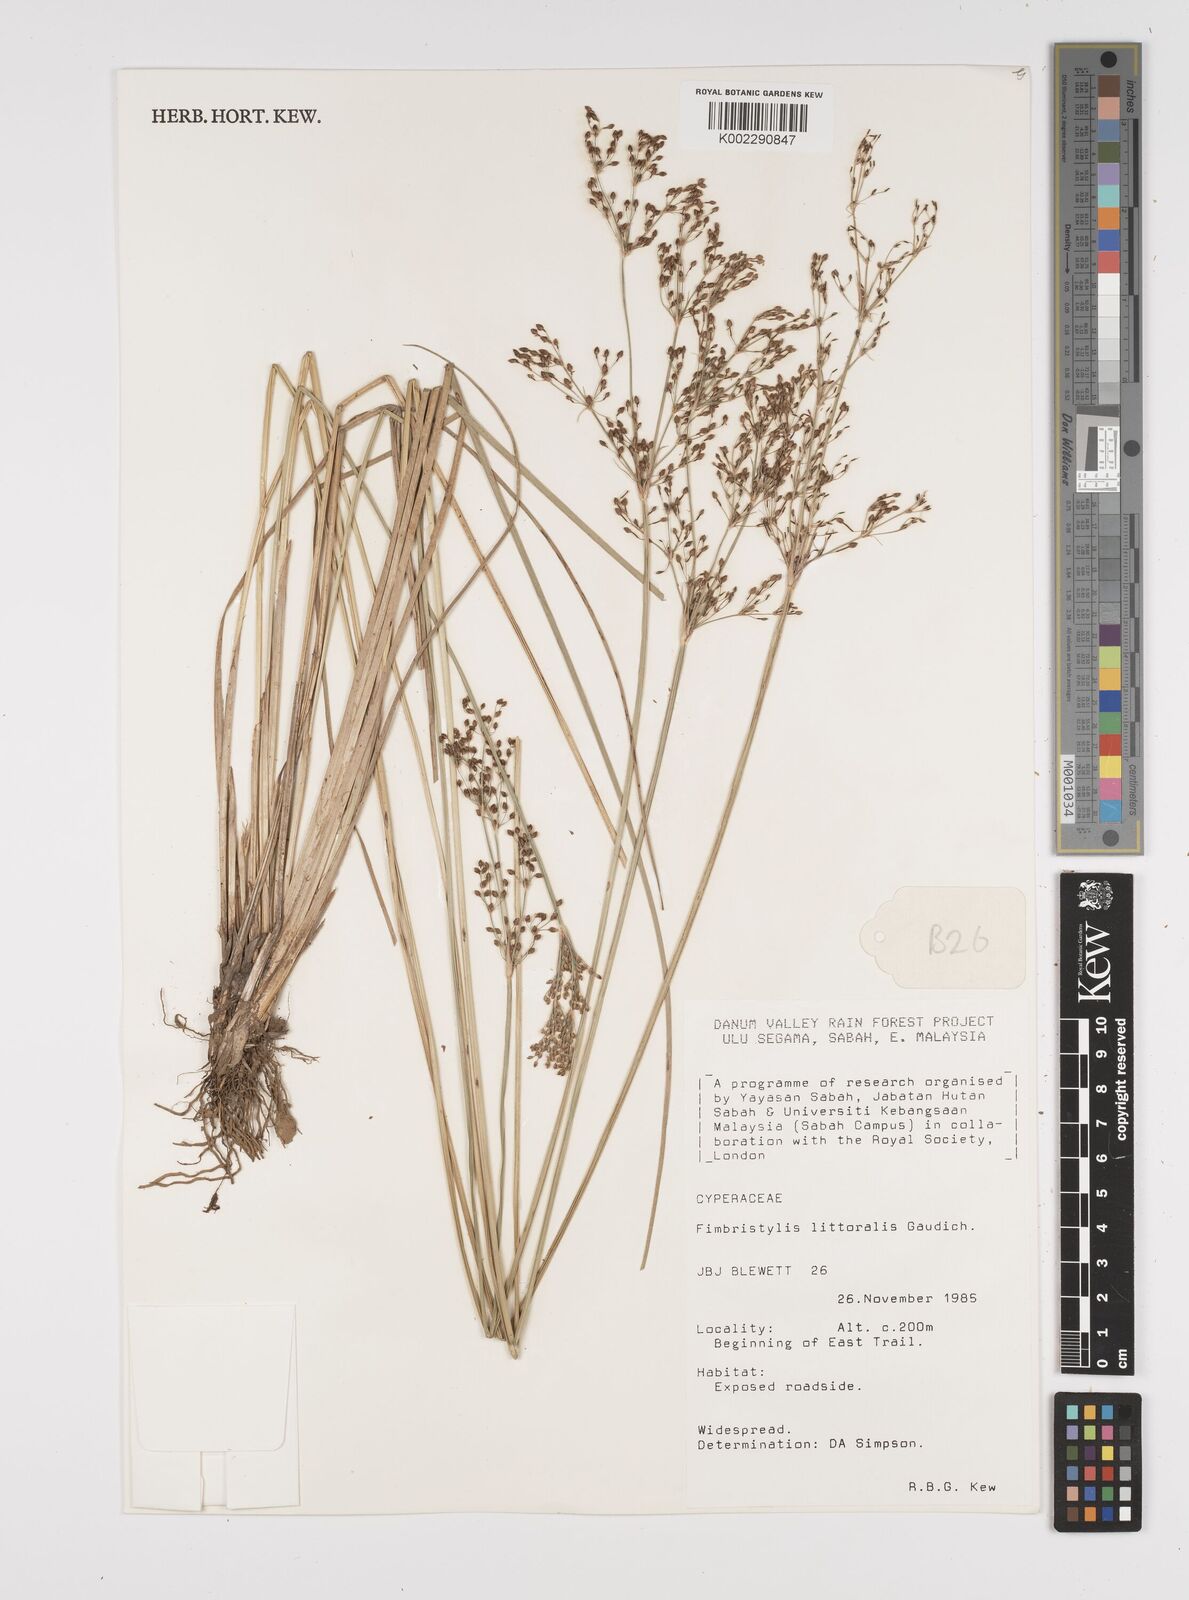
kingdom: Plantae
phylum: Tracheophyta
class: Liliopsida
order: Poales
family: Cyperaceae
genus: Fimbristylis
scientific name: Fimbristylis littoralis
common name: Fimbry
